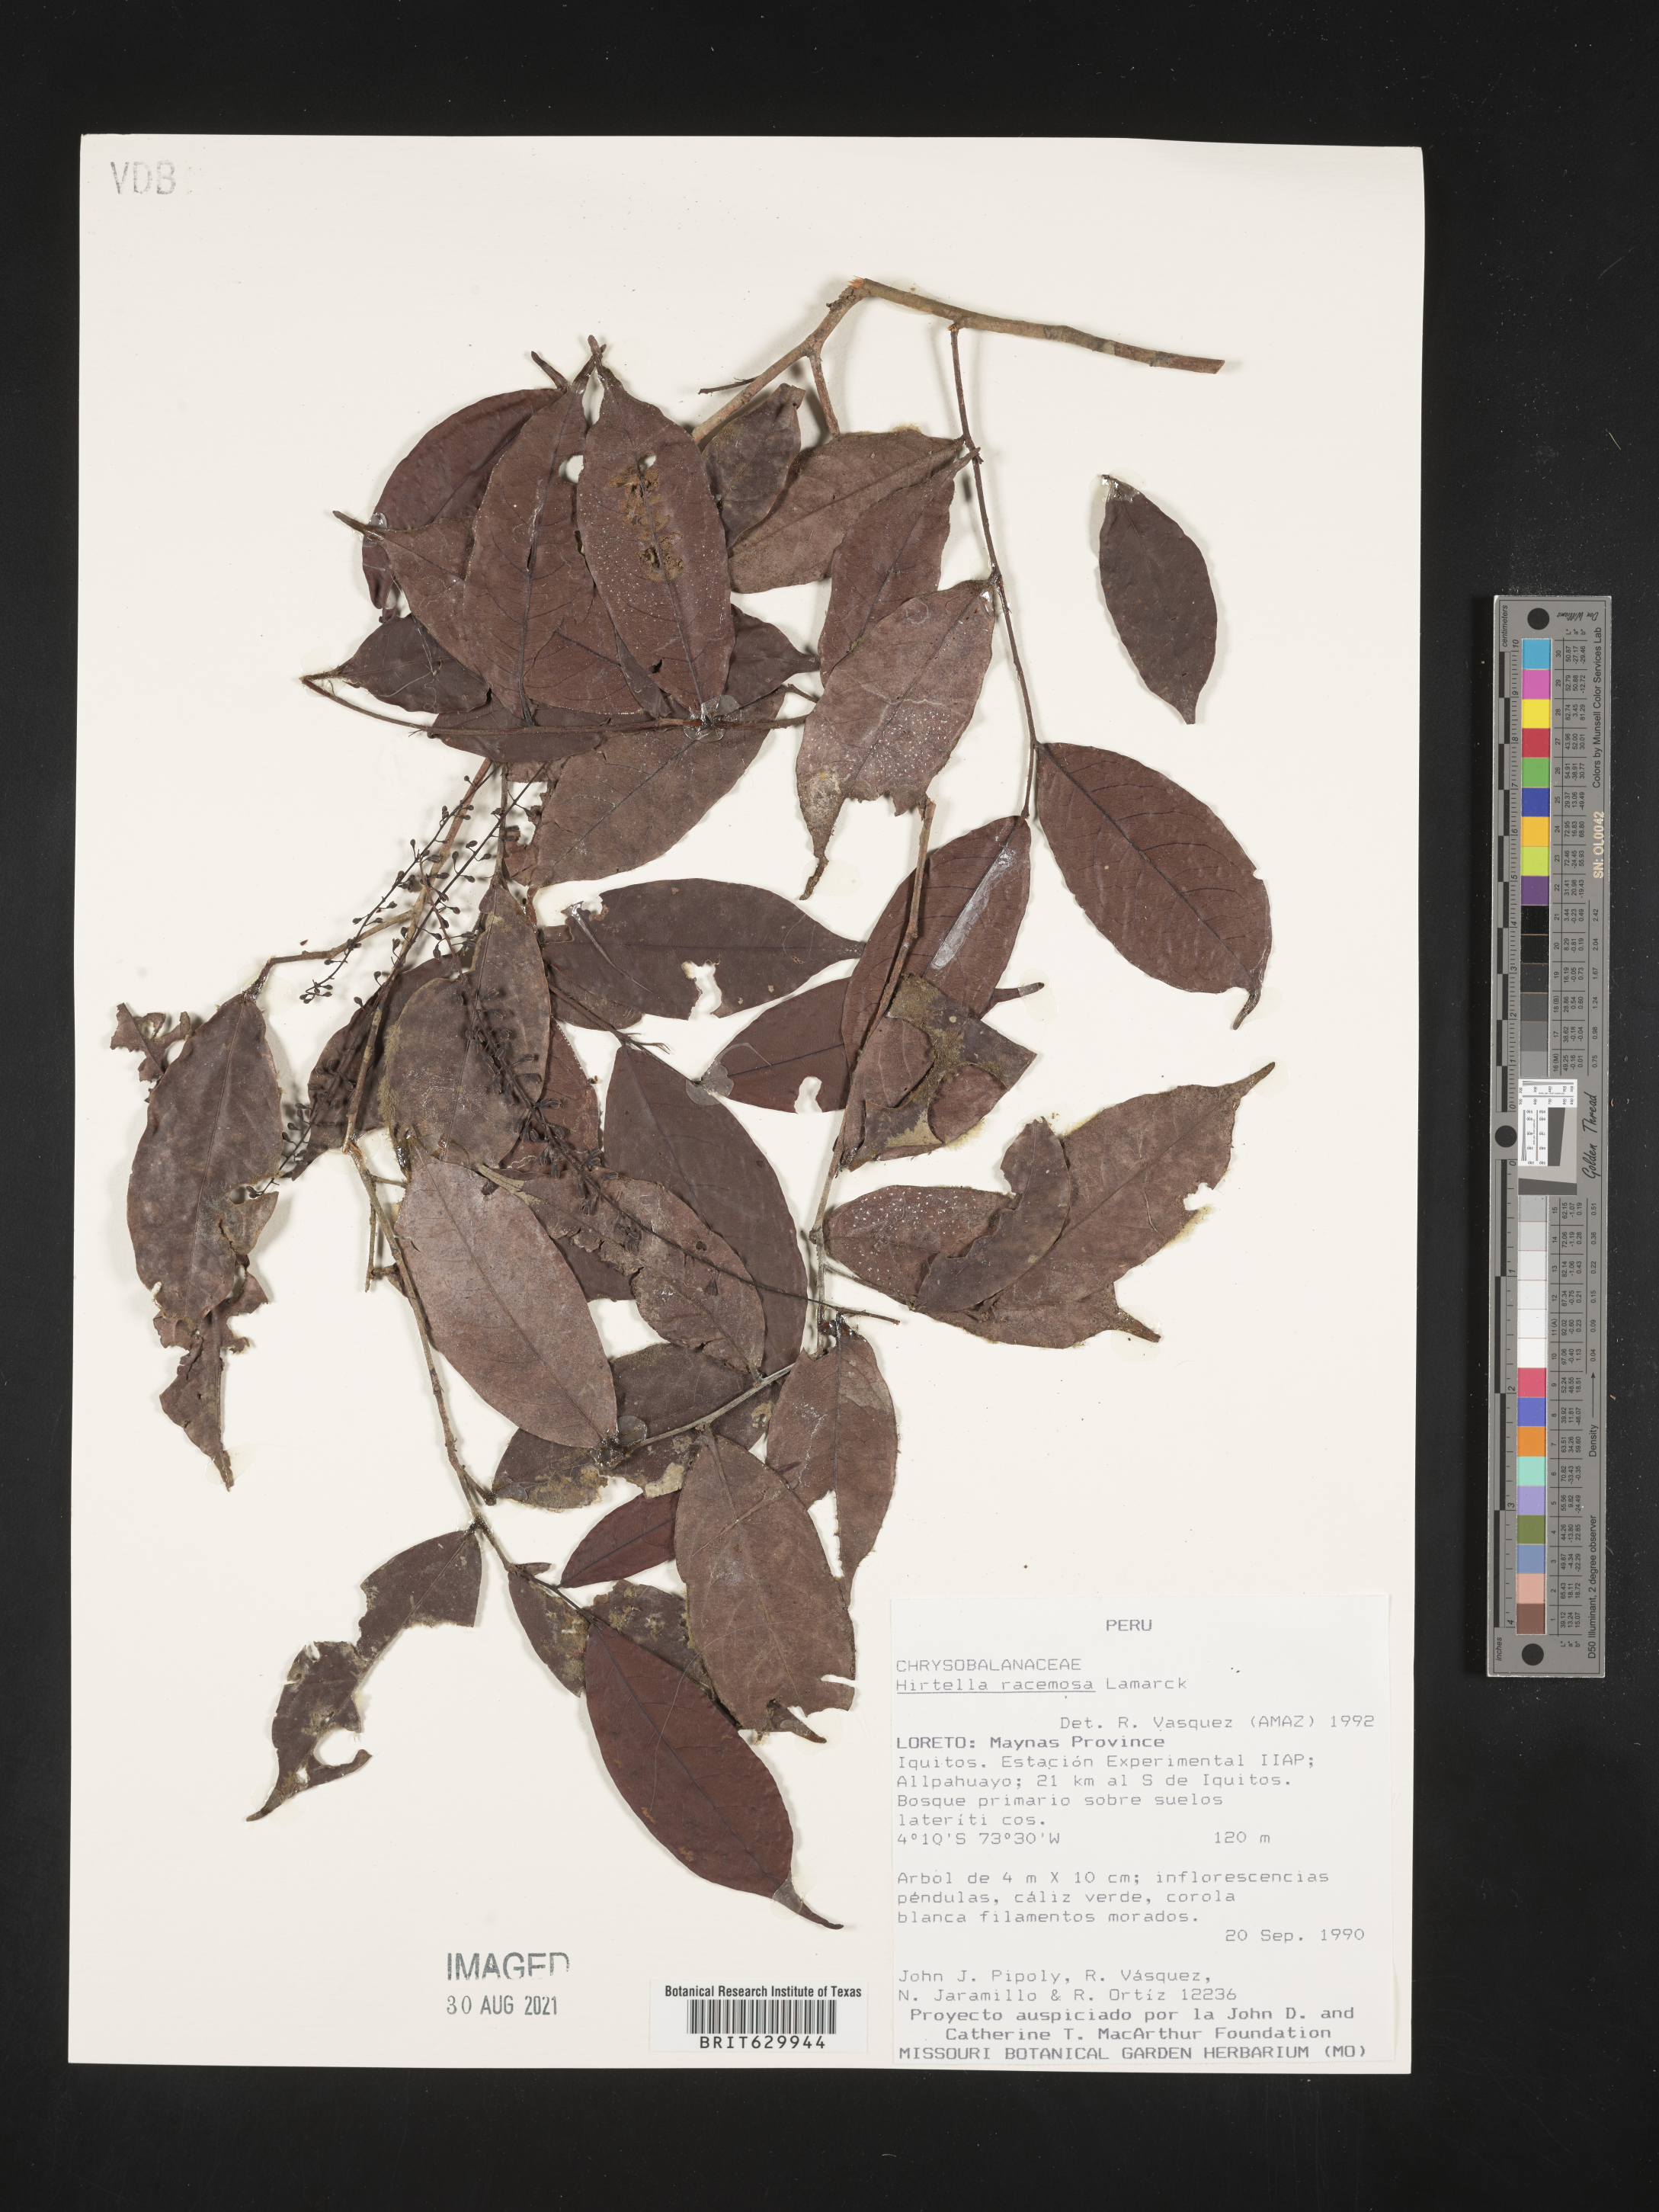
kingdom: Plantae
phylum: Tracheophyta
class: Magnoliopsida
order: Malpighiales
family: Chrysobalanaceae
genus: Hirtella
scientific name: Hirtella triandra
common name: Hairy plum
